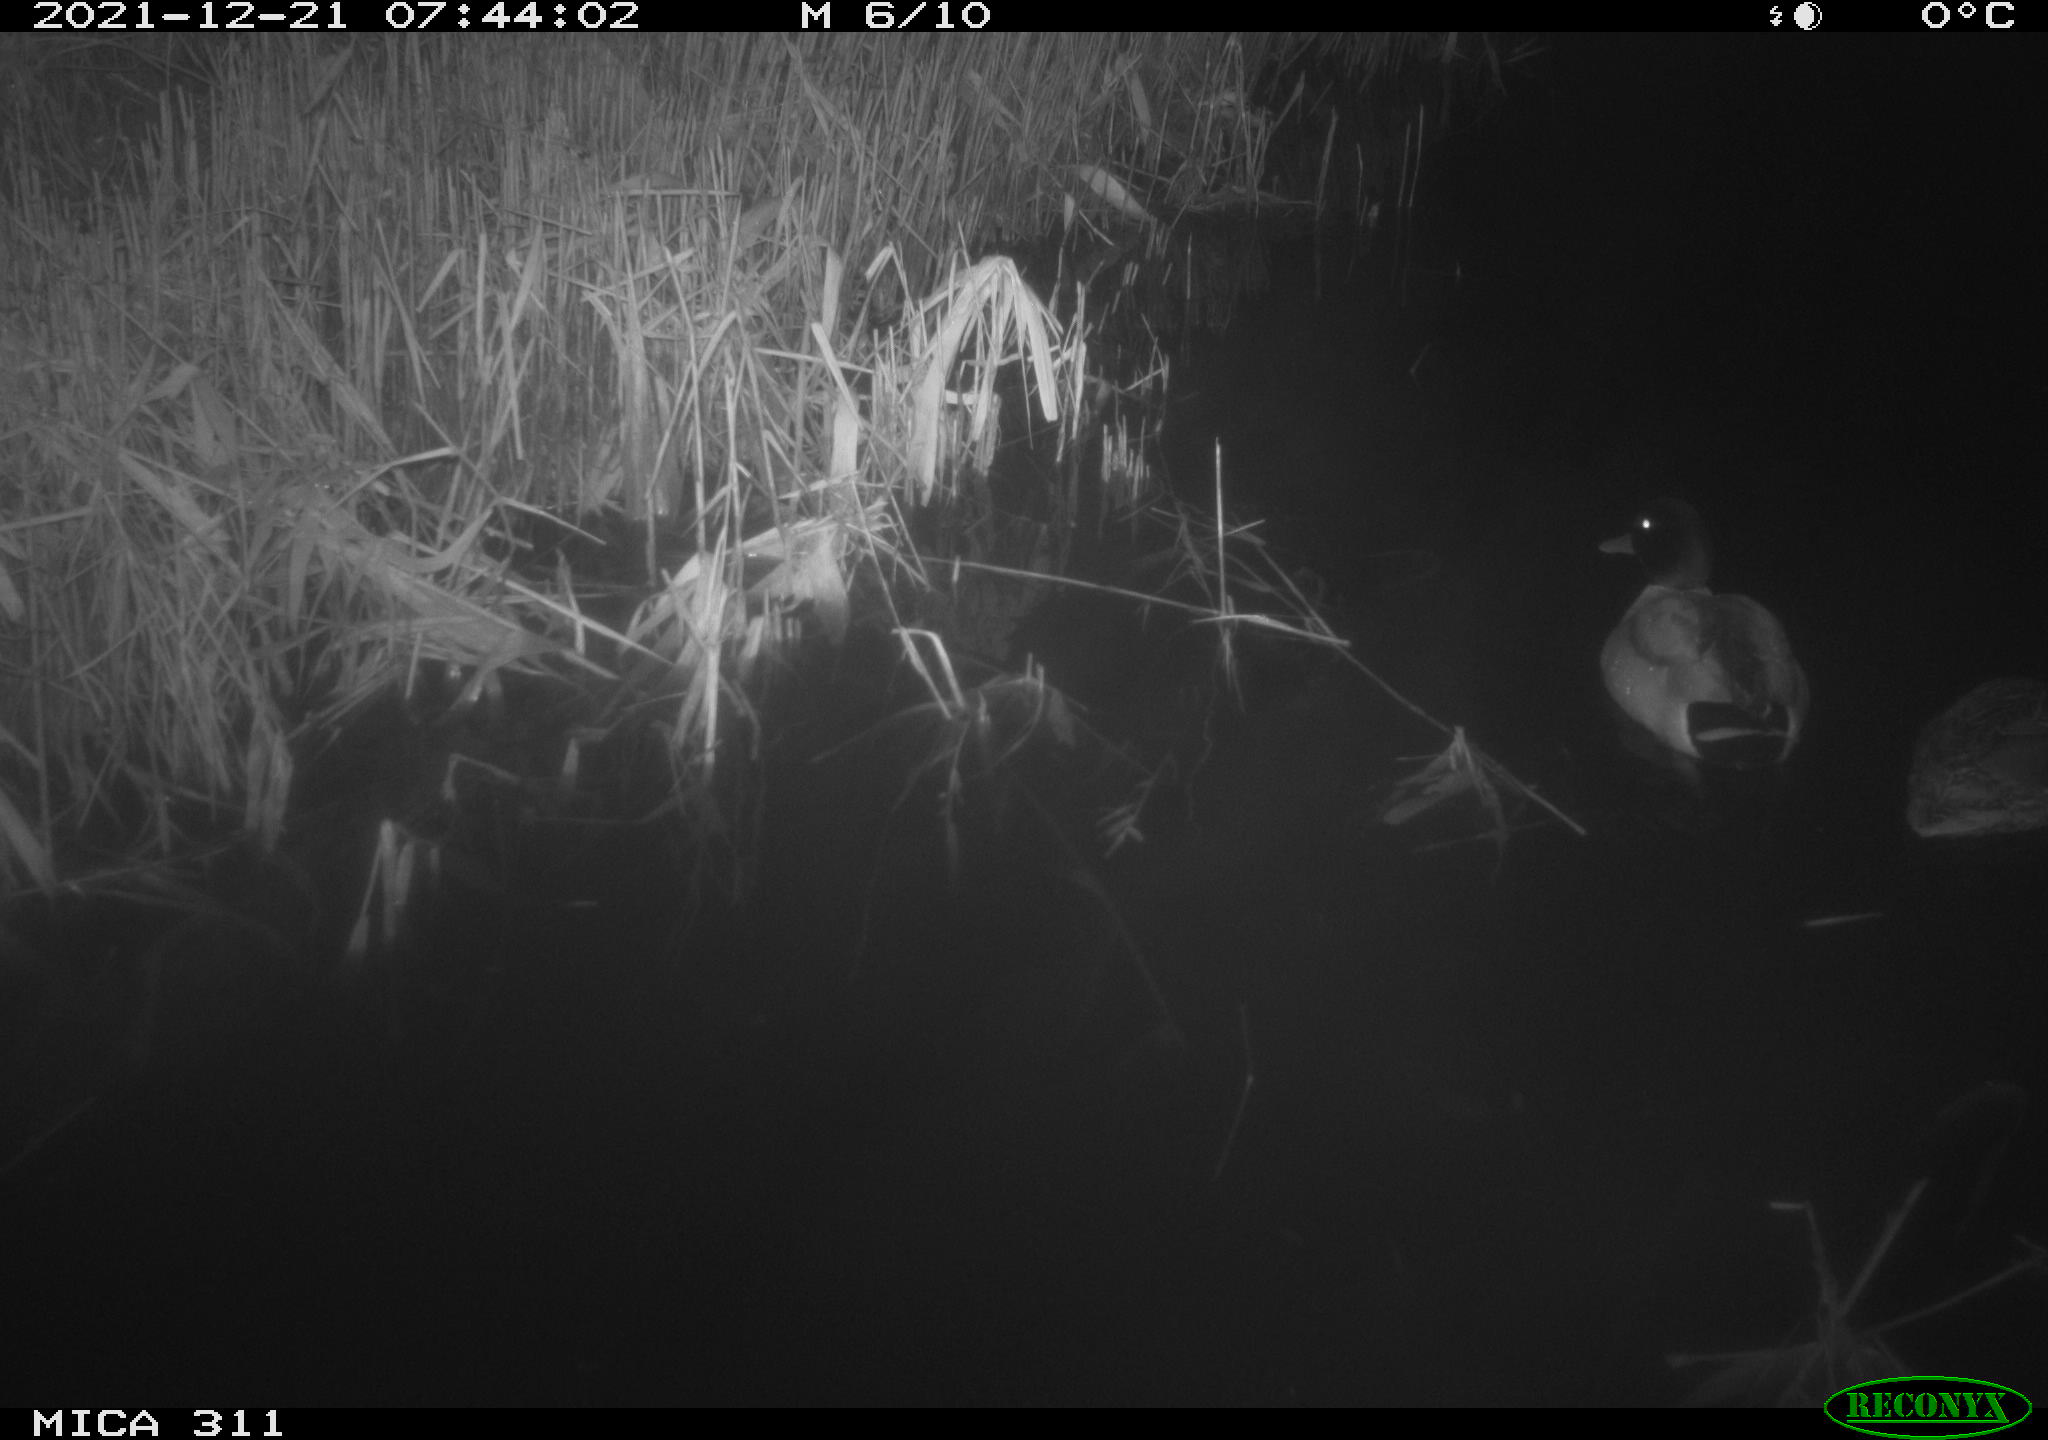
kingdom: Animalia
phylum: Chordata
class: Aves
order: Anseriformes
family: Anatidae
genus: Anas
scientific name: Anas platyrhynchos
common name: Mallard
